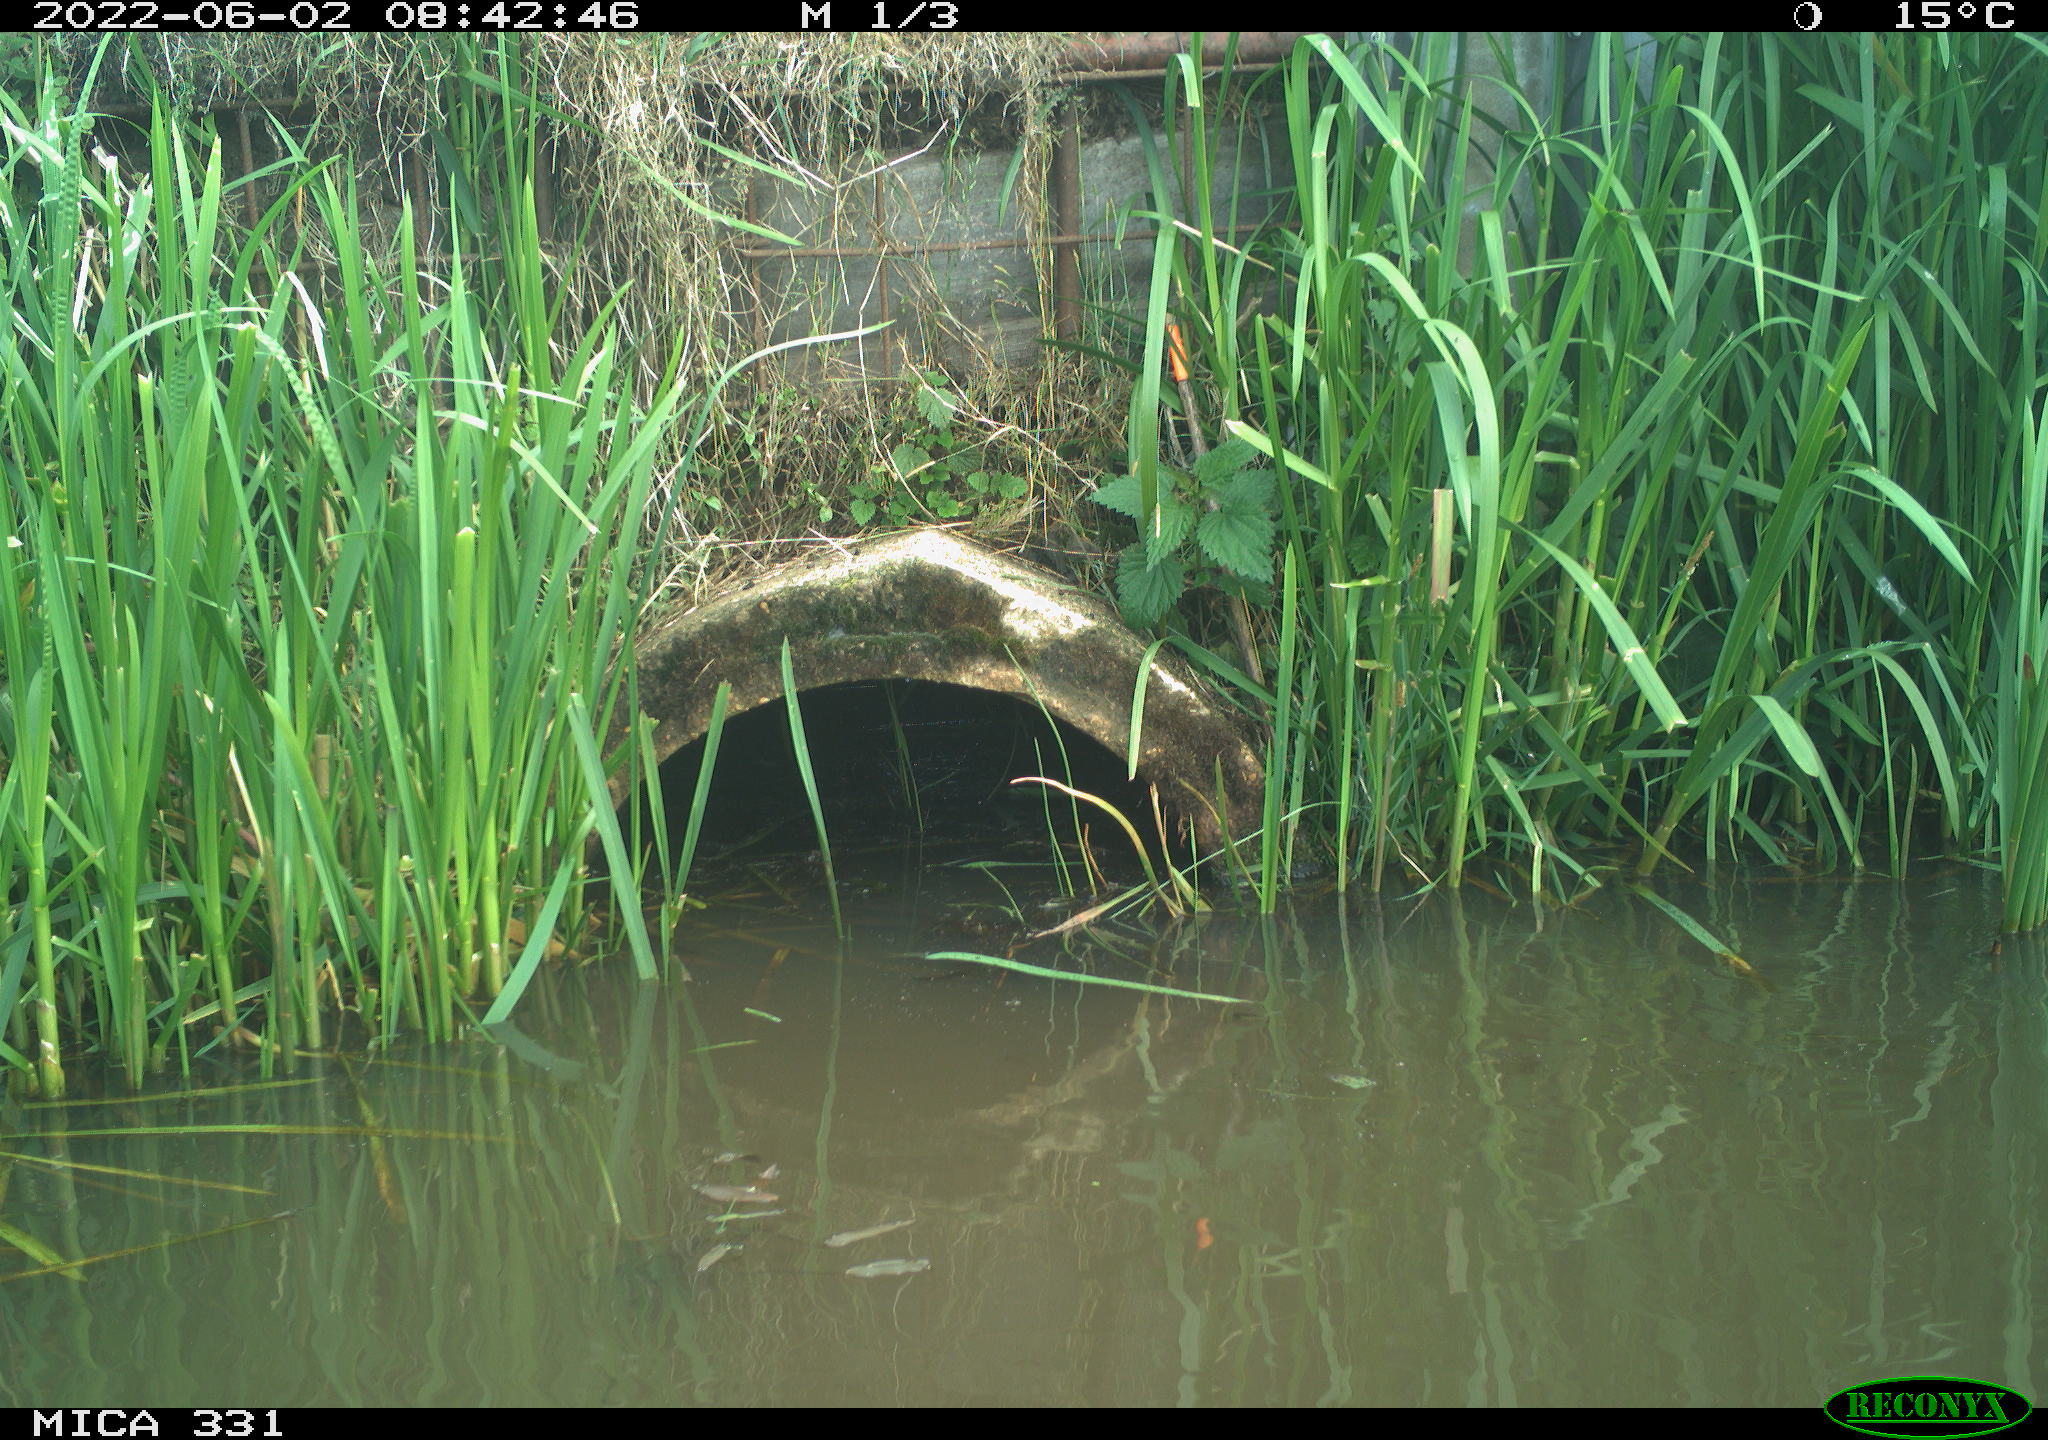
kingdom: Animalia
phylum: Chordata
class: Aves
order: Gruiformes
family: Rallidae
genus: Fulica
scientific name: Fulica atra
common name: Eurasian coot
